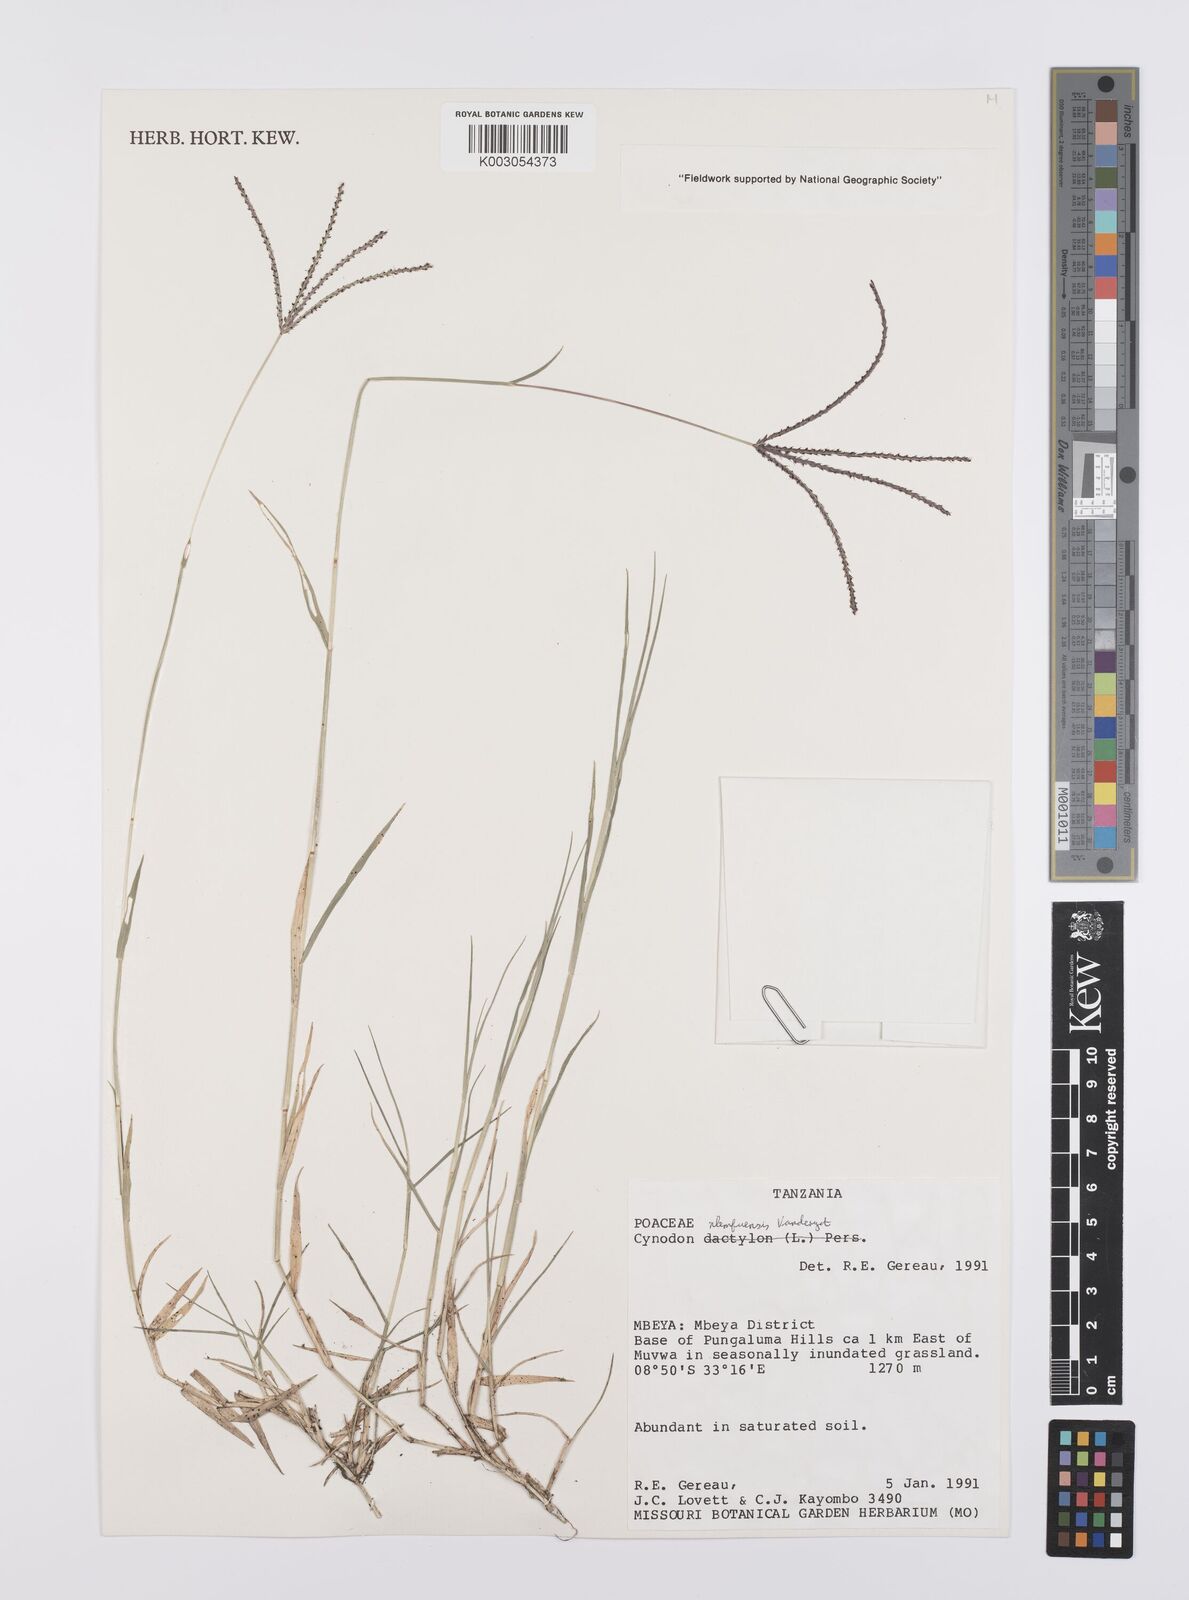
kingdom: Plantae
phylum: Tracheophyta
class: Liliopsida
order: Poales
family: Poaceae
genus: Cynodon
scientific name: Cynodon nlemfuensis
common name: African bermudagrass
